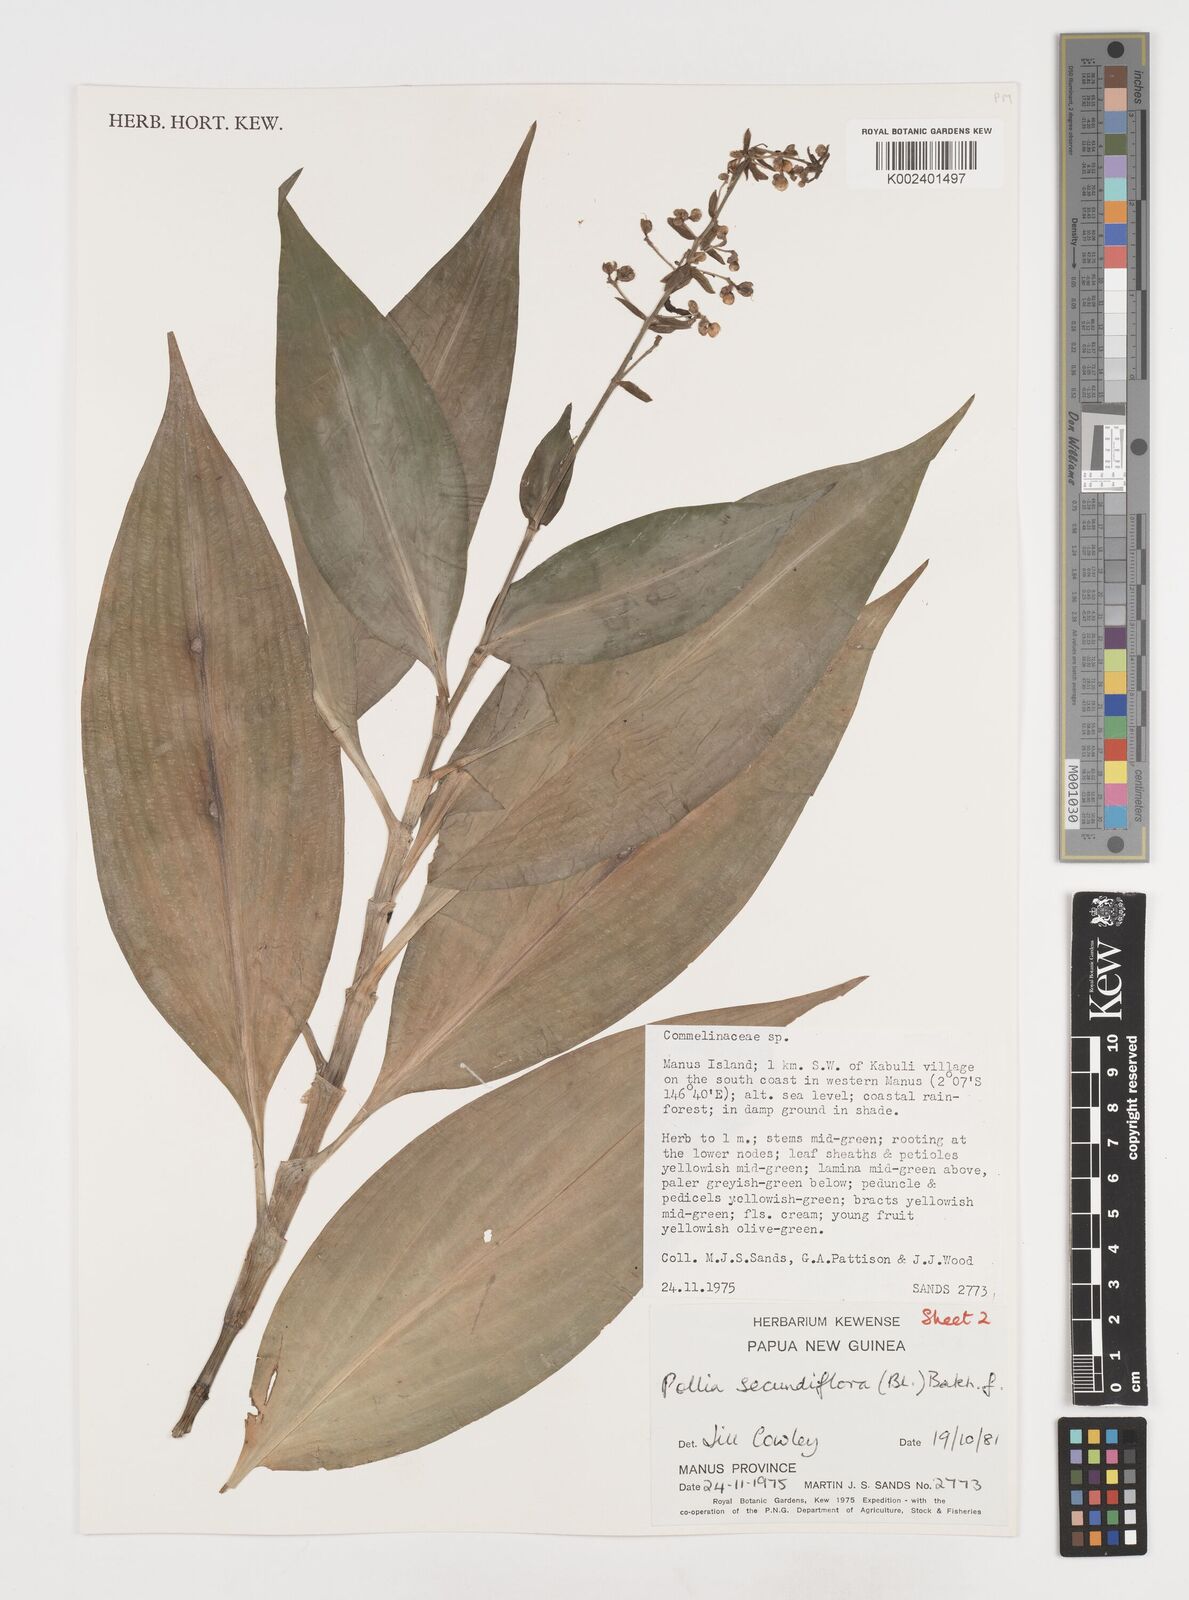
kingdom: Plantae
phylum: Tracheophyta
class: Liliopsida
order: Commelinales
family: Commelinaceae
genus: Pollia
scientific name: Pollia secundiflora
